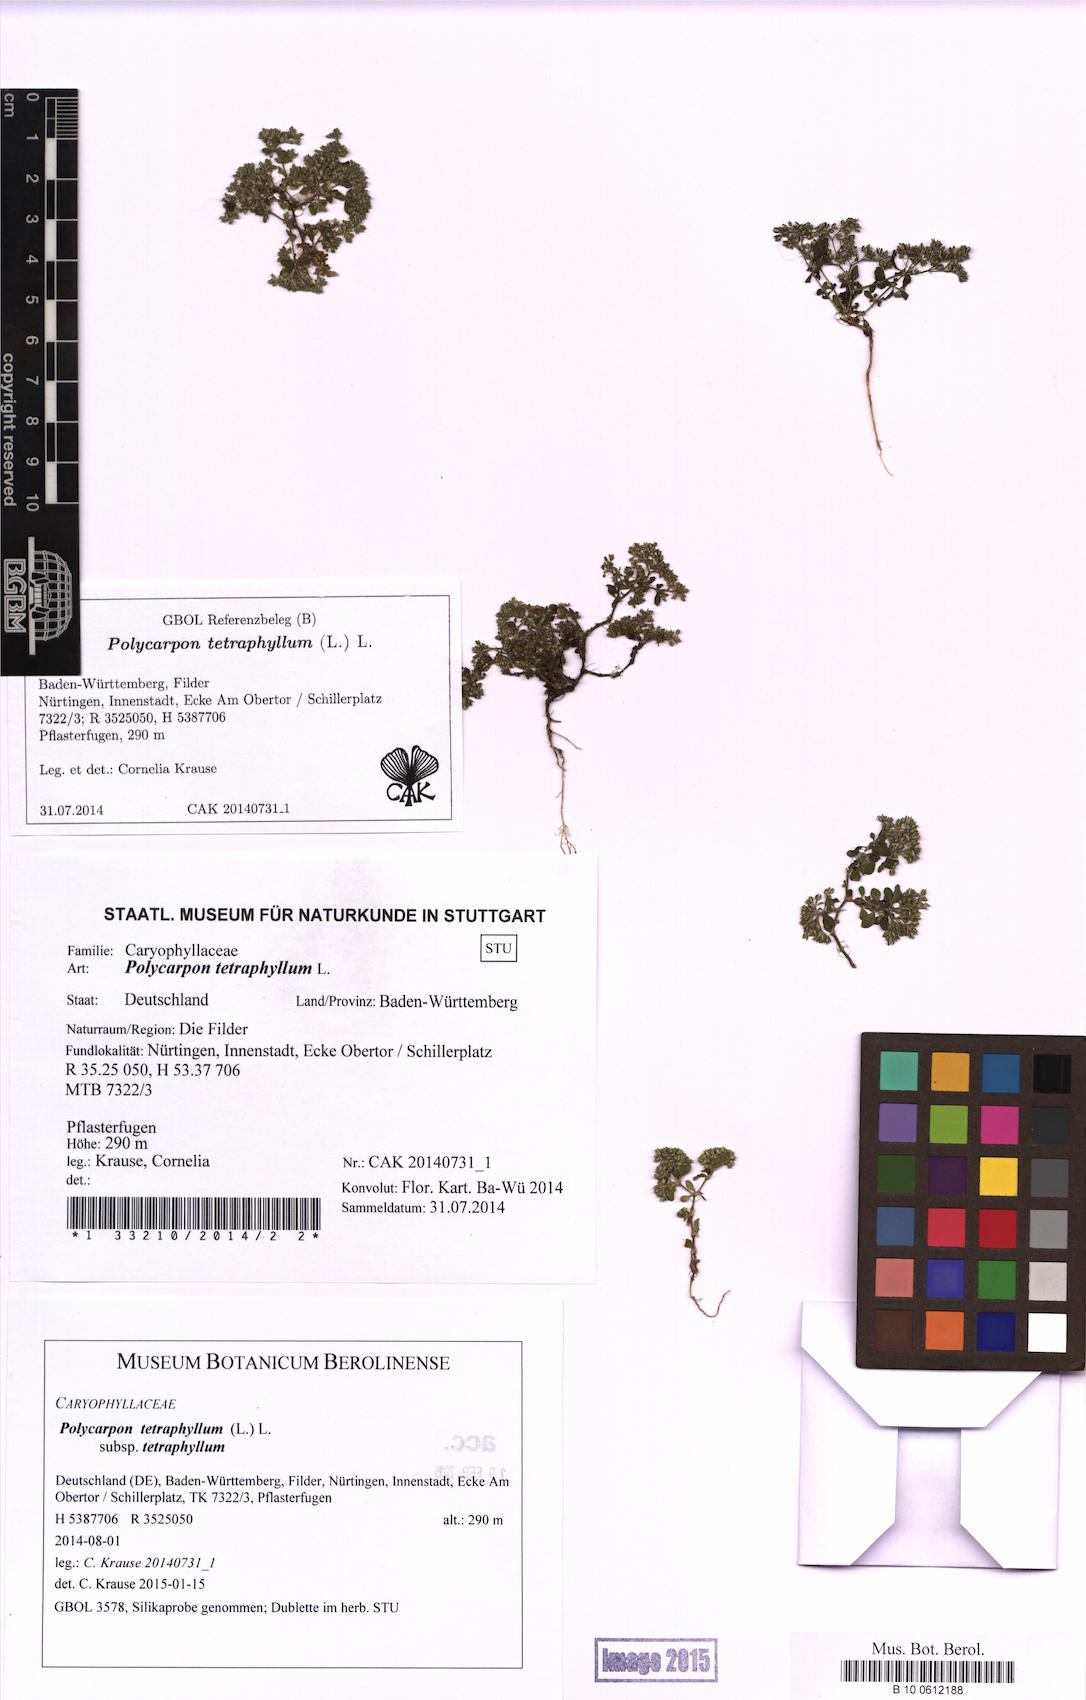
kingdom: Plantae
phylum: Tracheophyta
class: Magnoliopsida
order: Caryophyllales
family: Caryophyllaceae
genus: Polycarpon
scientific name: Polycarpon tetraphyllum
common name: Four-leaved all-seed
